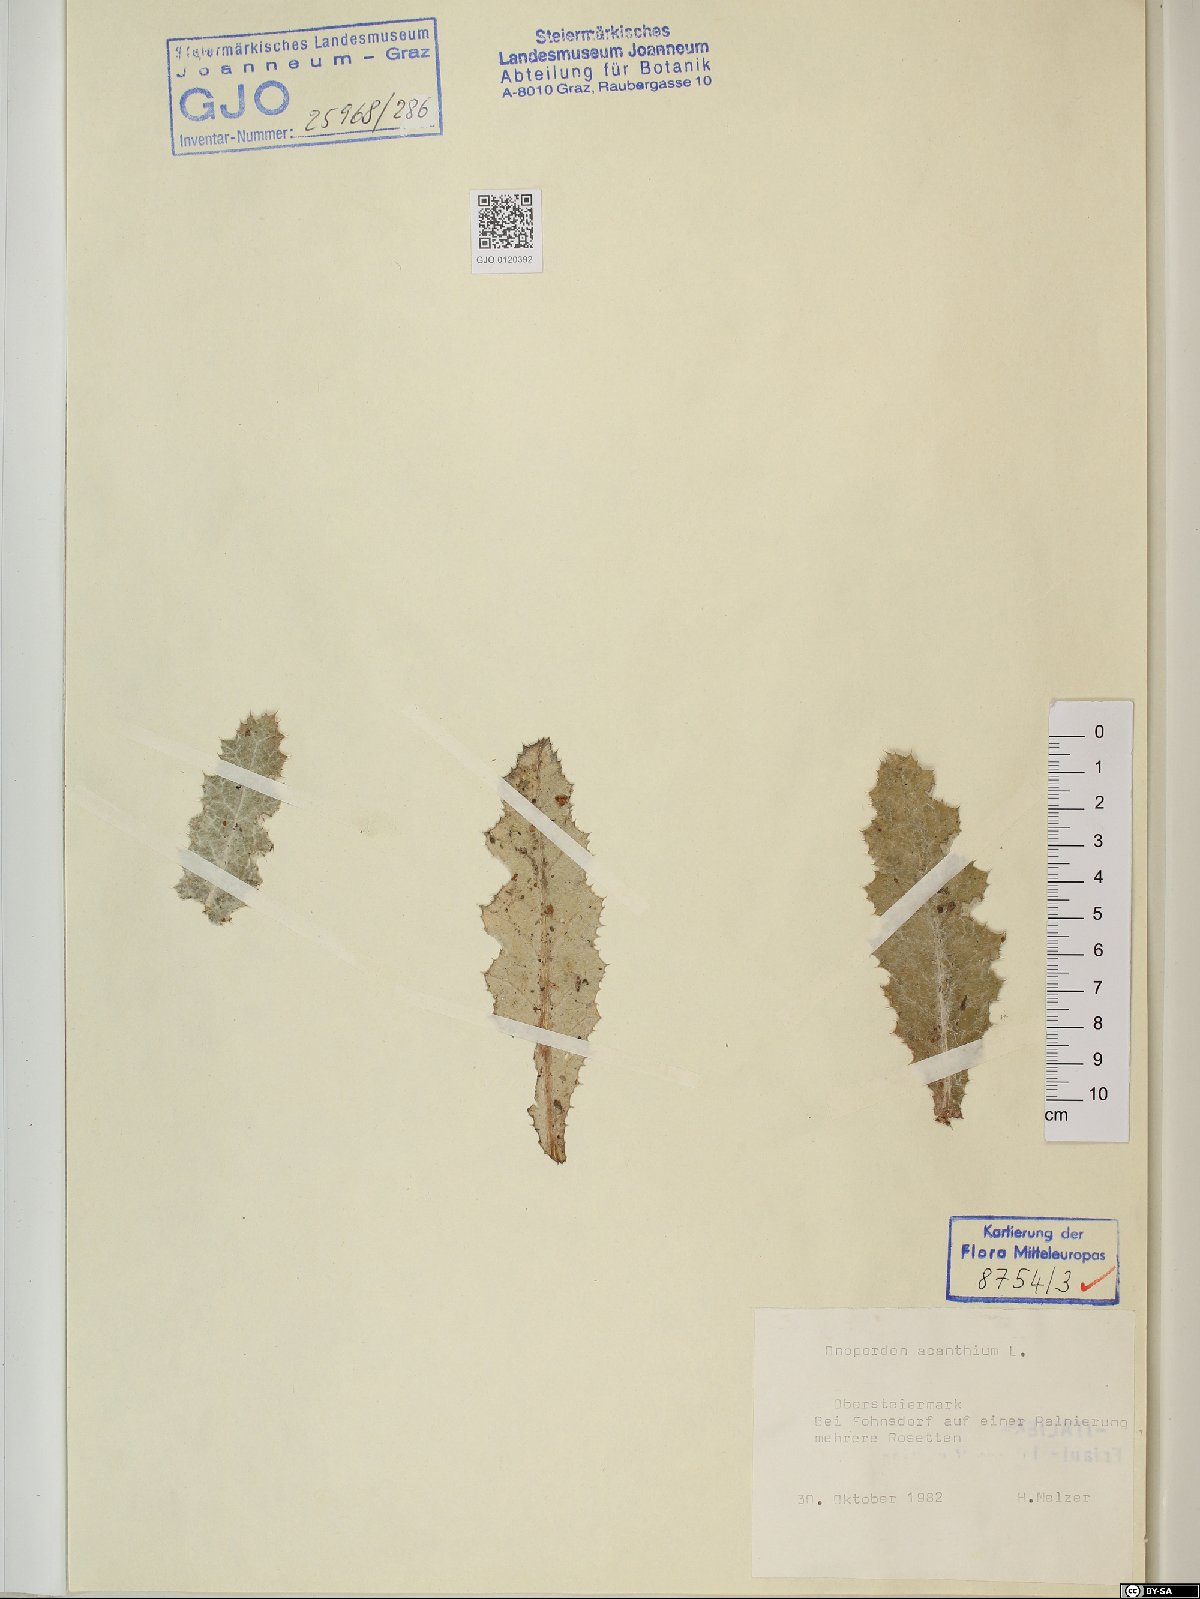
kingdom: Plantae
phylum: Tracheophyta
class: Magnoliopsida
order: Asterales
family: Asteraceae
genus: Onopordum
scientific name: Onopordum acanthium
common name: Scotch thistle
